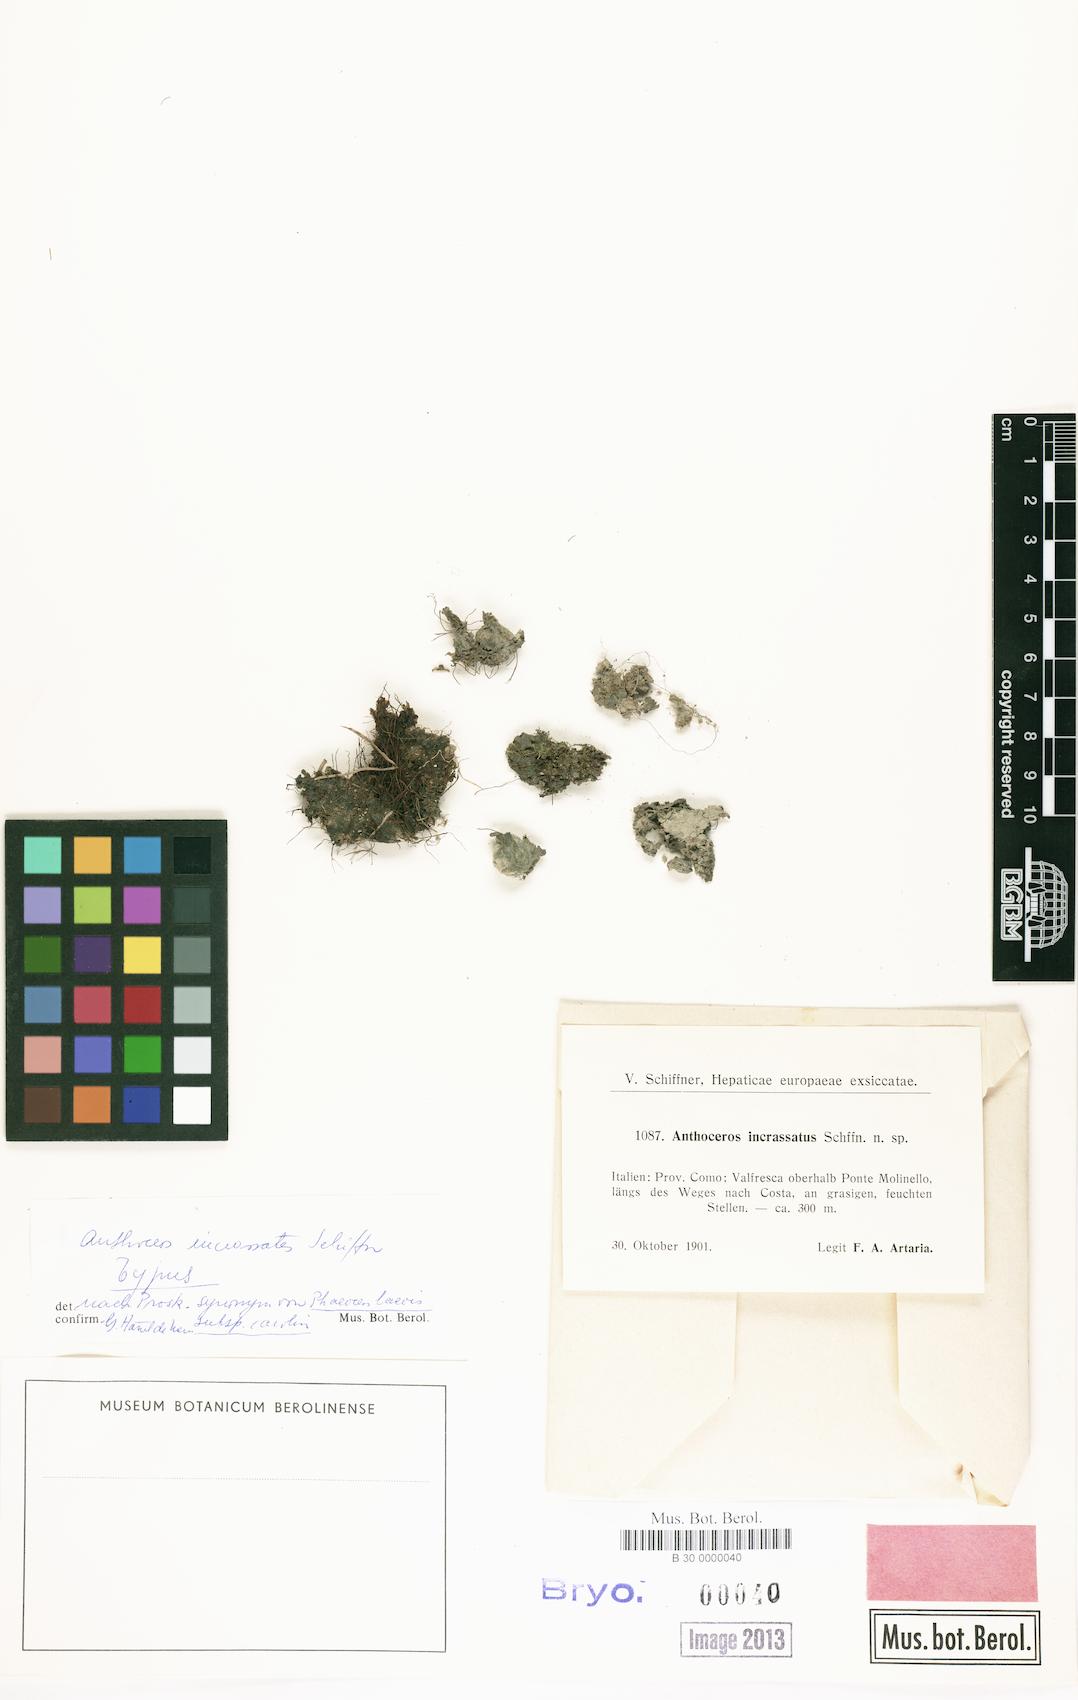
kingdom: Plantae
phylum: Anthocerotophyta
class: Anthocerotopsida
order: Notothyladales
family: Notothyladaceae
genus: Phaeoceros
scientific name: Phaeoceros carolinianus
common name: Carolina hornwort
